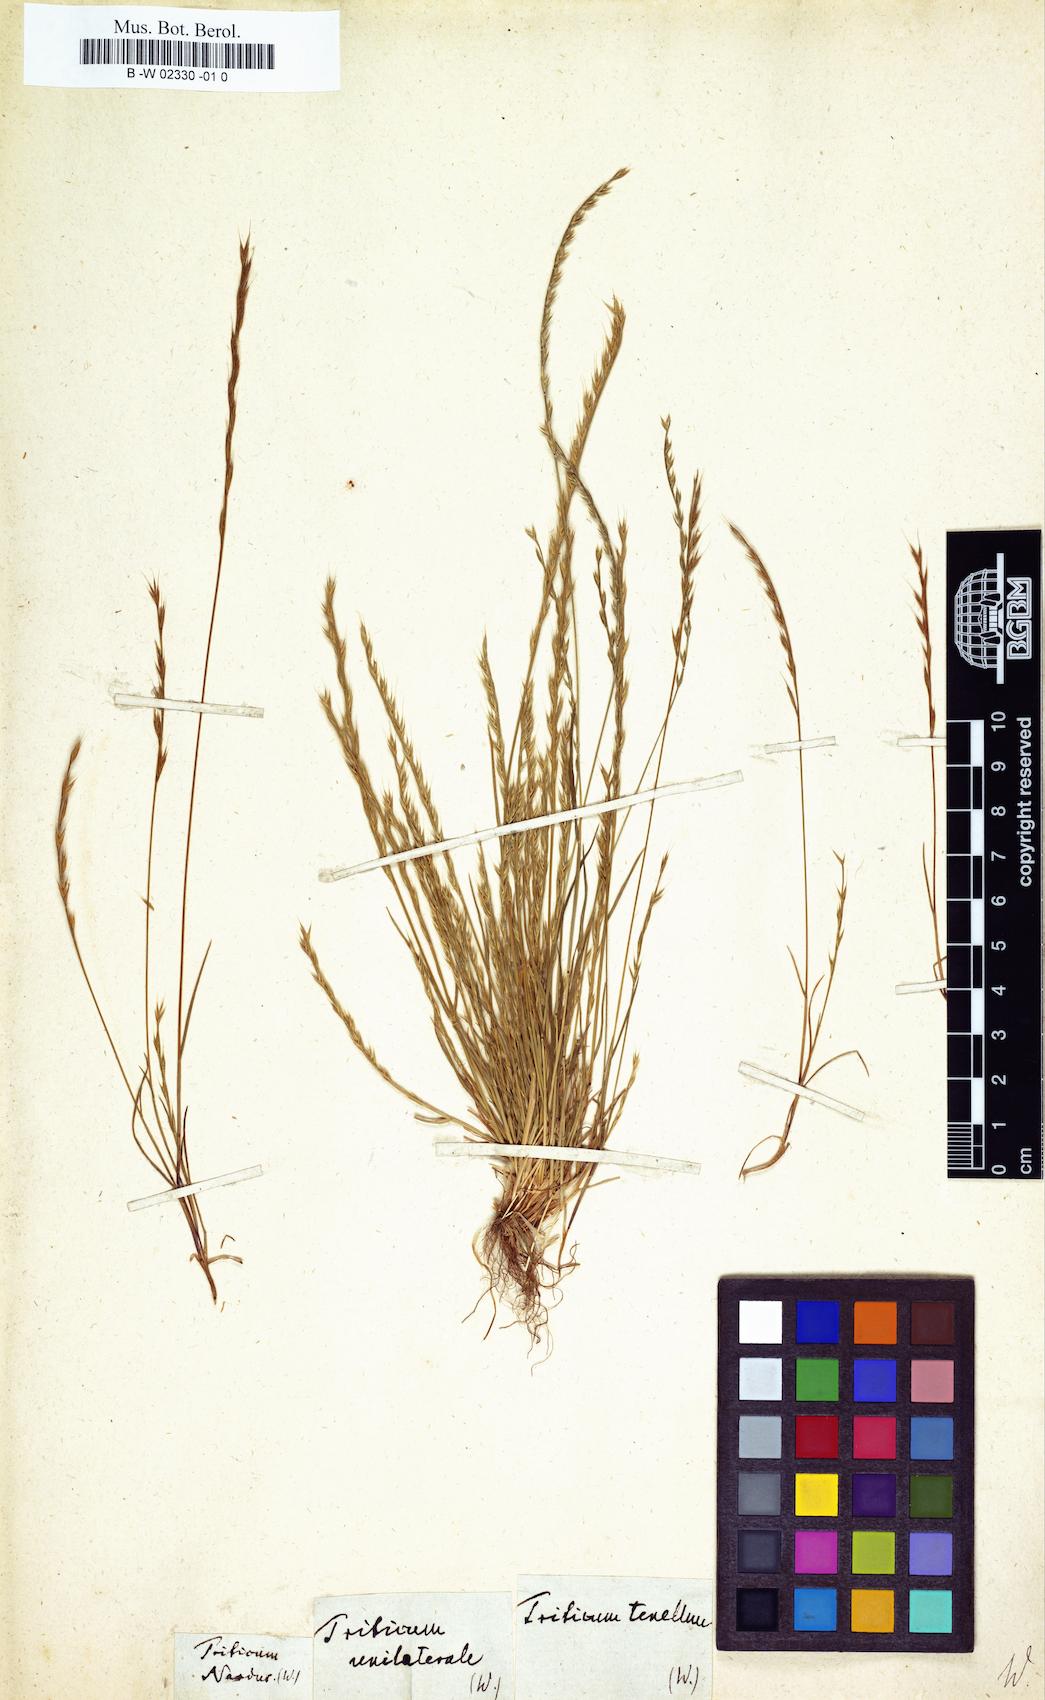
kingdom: Plantae
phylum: Tracheophyta
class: Liliopsida
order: Poales
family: Poaceae
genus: Festuca
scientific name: Festuca lachenalii
